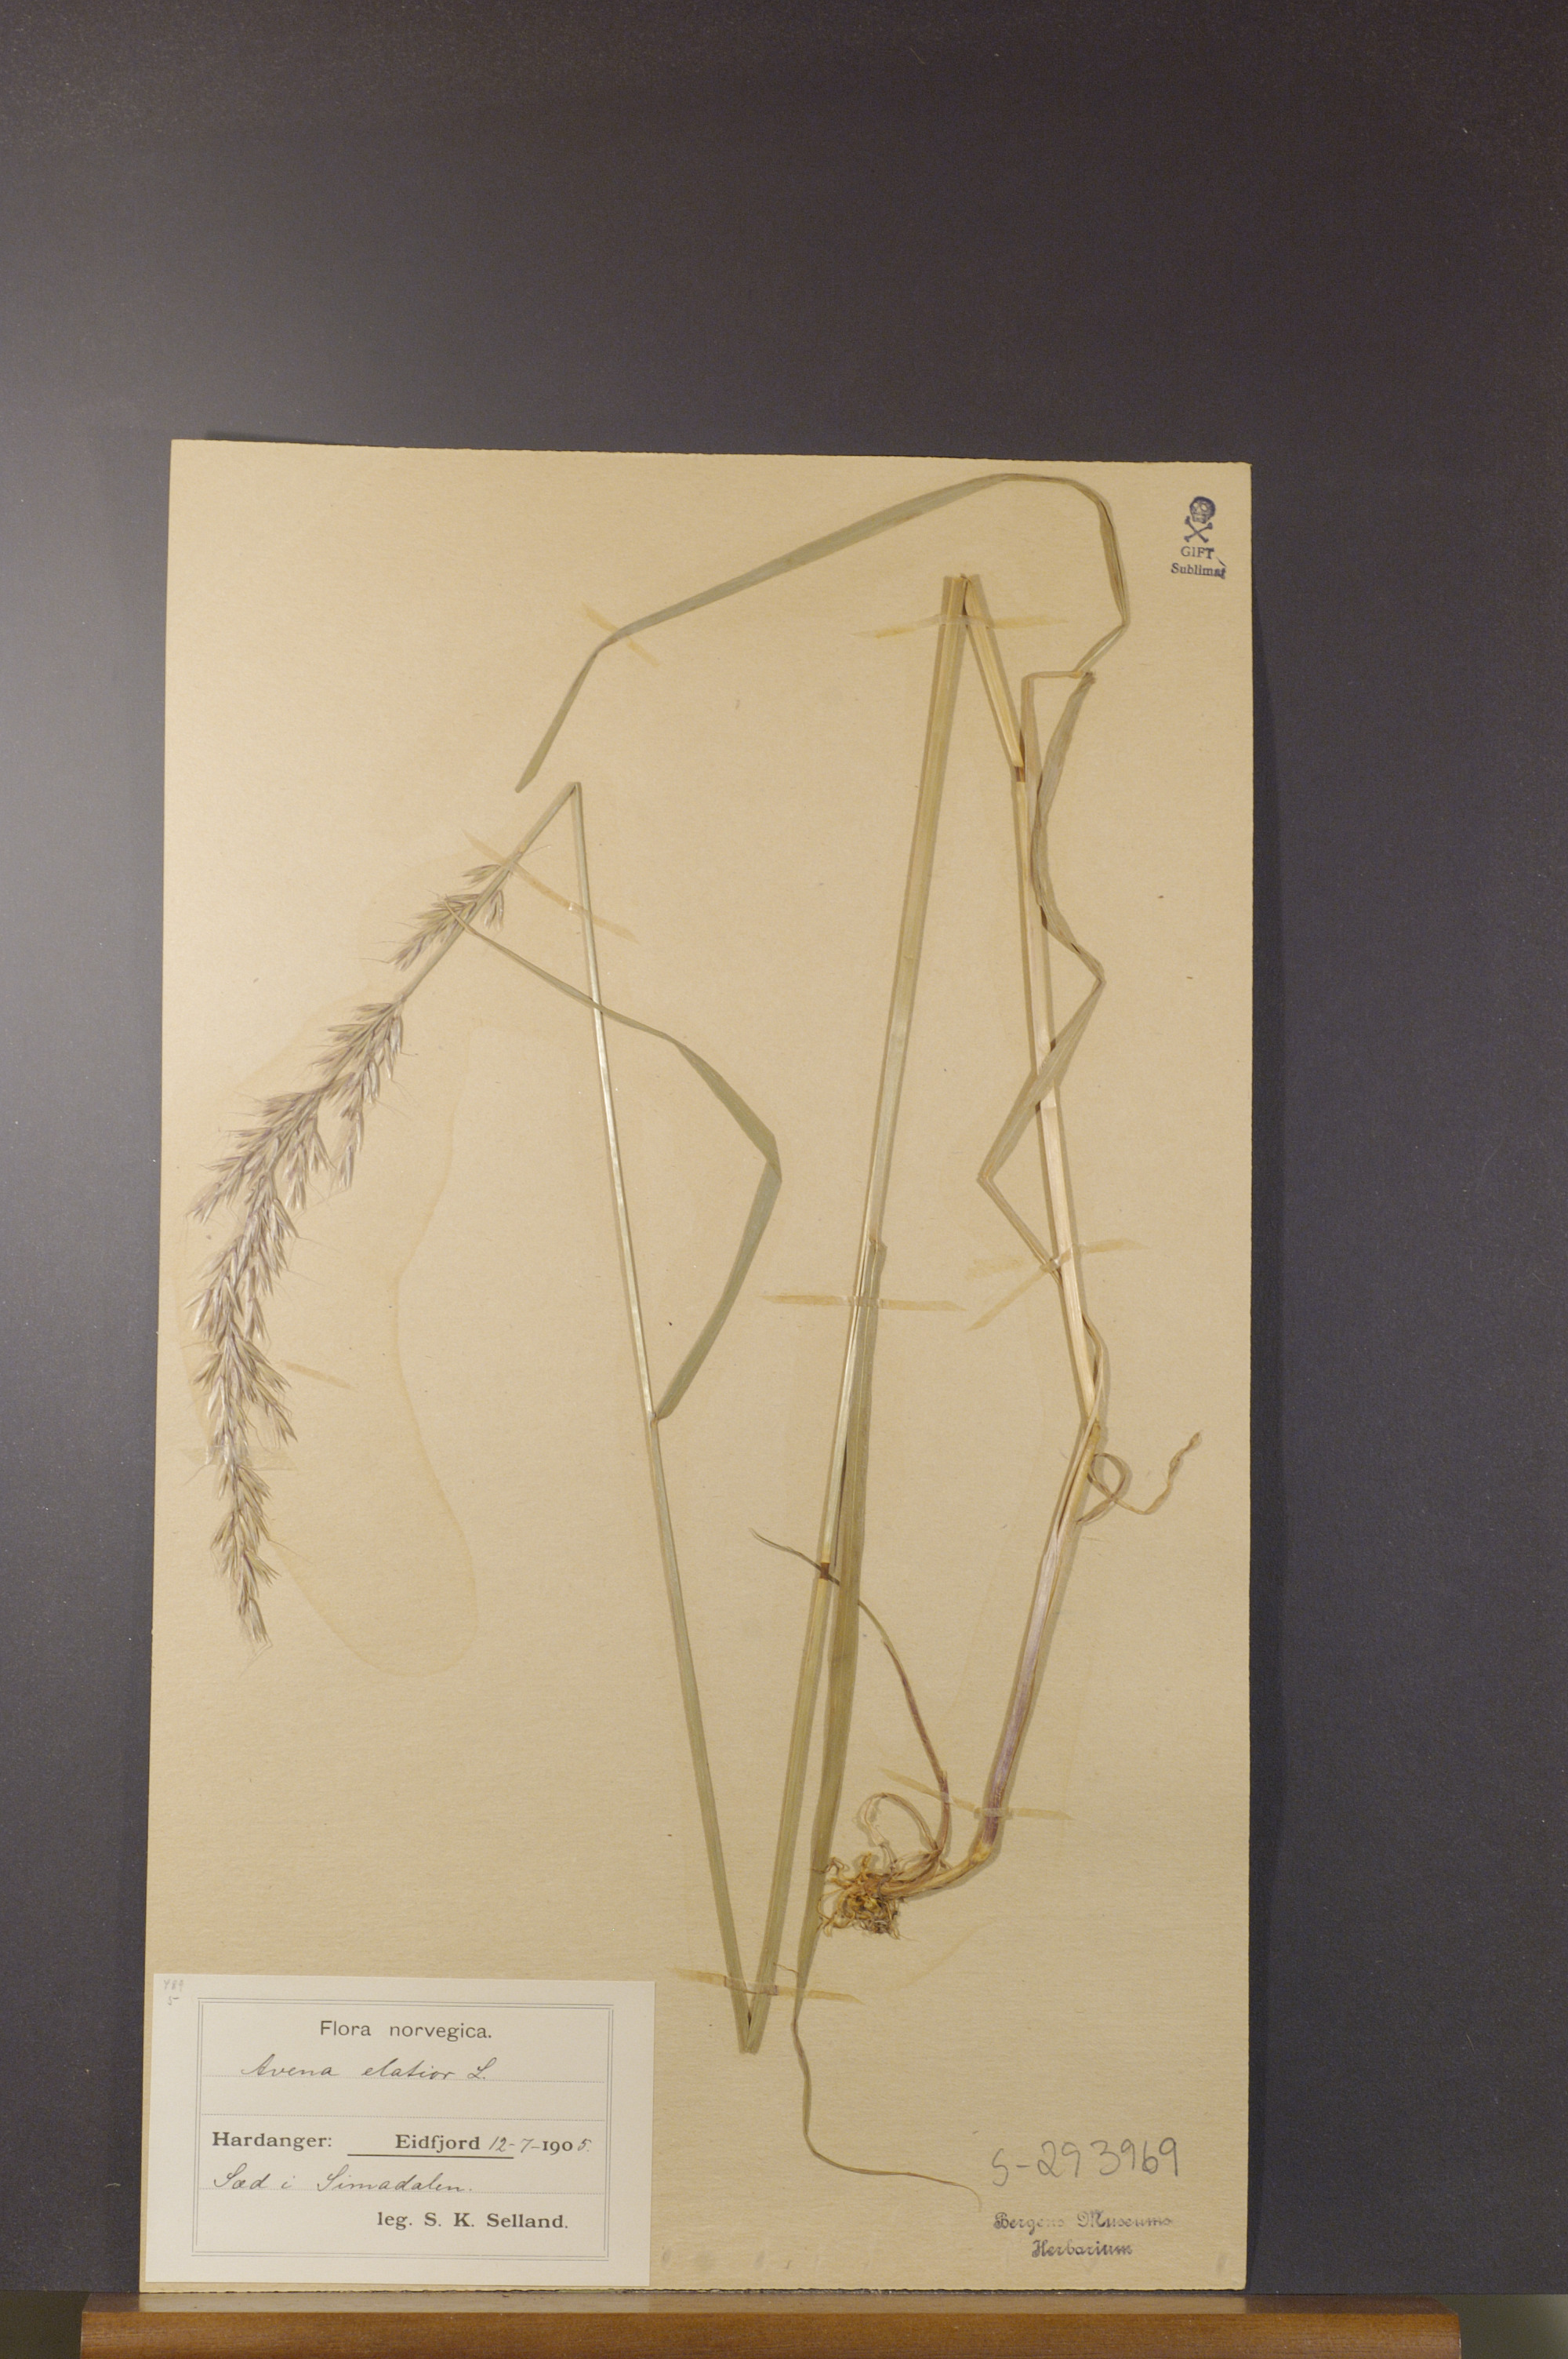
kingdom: Plantae
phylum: Tracheophyta
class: Liliopsida
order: Poales
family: Poaceae
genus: Arrhenatherum
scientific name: Arrhenatherum elatius
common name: Tall oatgrass
